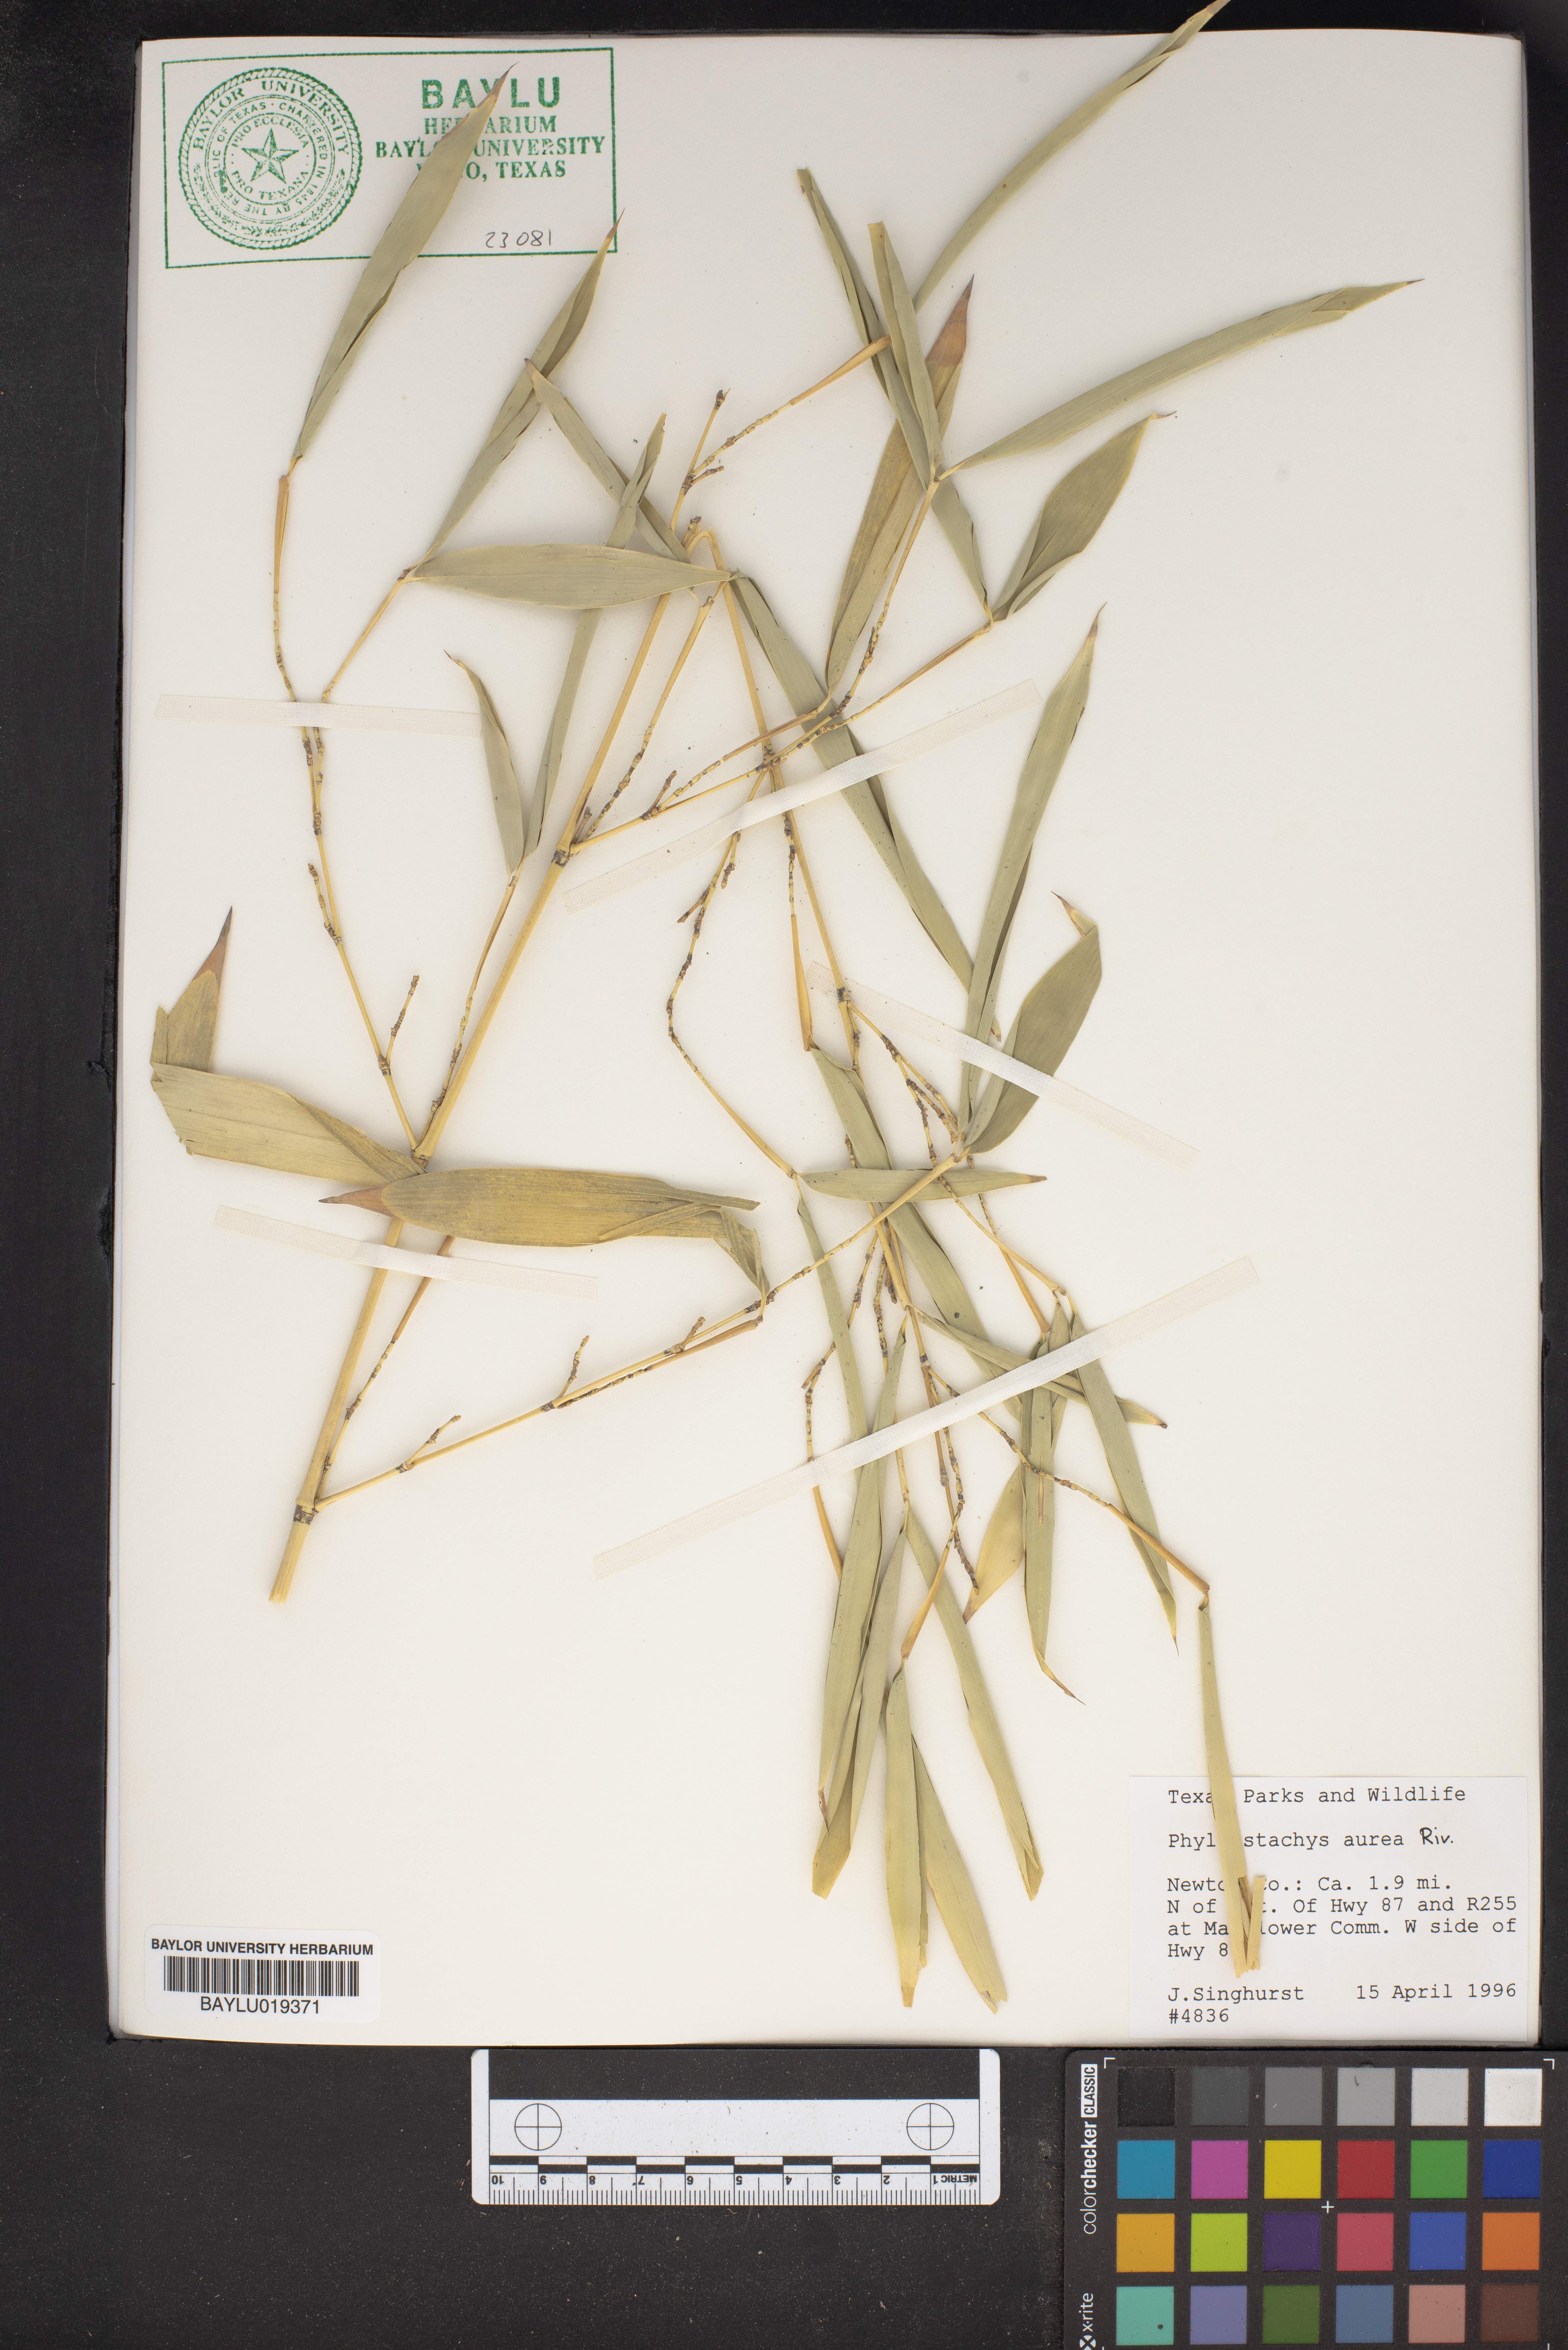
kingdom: Plantae
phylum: Tracheophyta
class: Liliopsida
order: Poales
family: Poaceae
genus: Phyllostachys
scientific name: Phyllostachys aurea
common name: Golden bamboo
